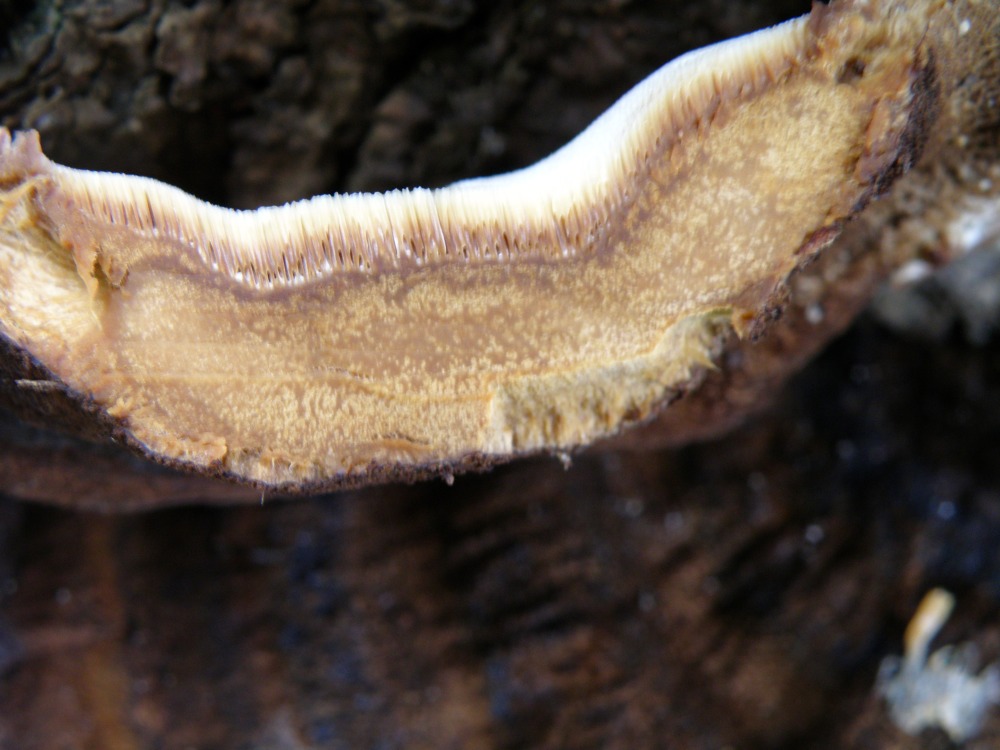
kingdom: Fungi
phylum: Basidiomycota
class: Agaricomycetes
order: Polyporales
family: Ischnodermataceae
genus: Ischnoderma
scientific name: Ischnoderma benzoinum
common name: gran-tjæreporesvamp
